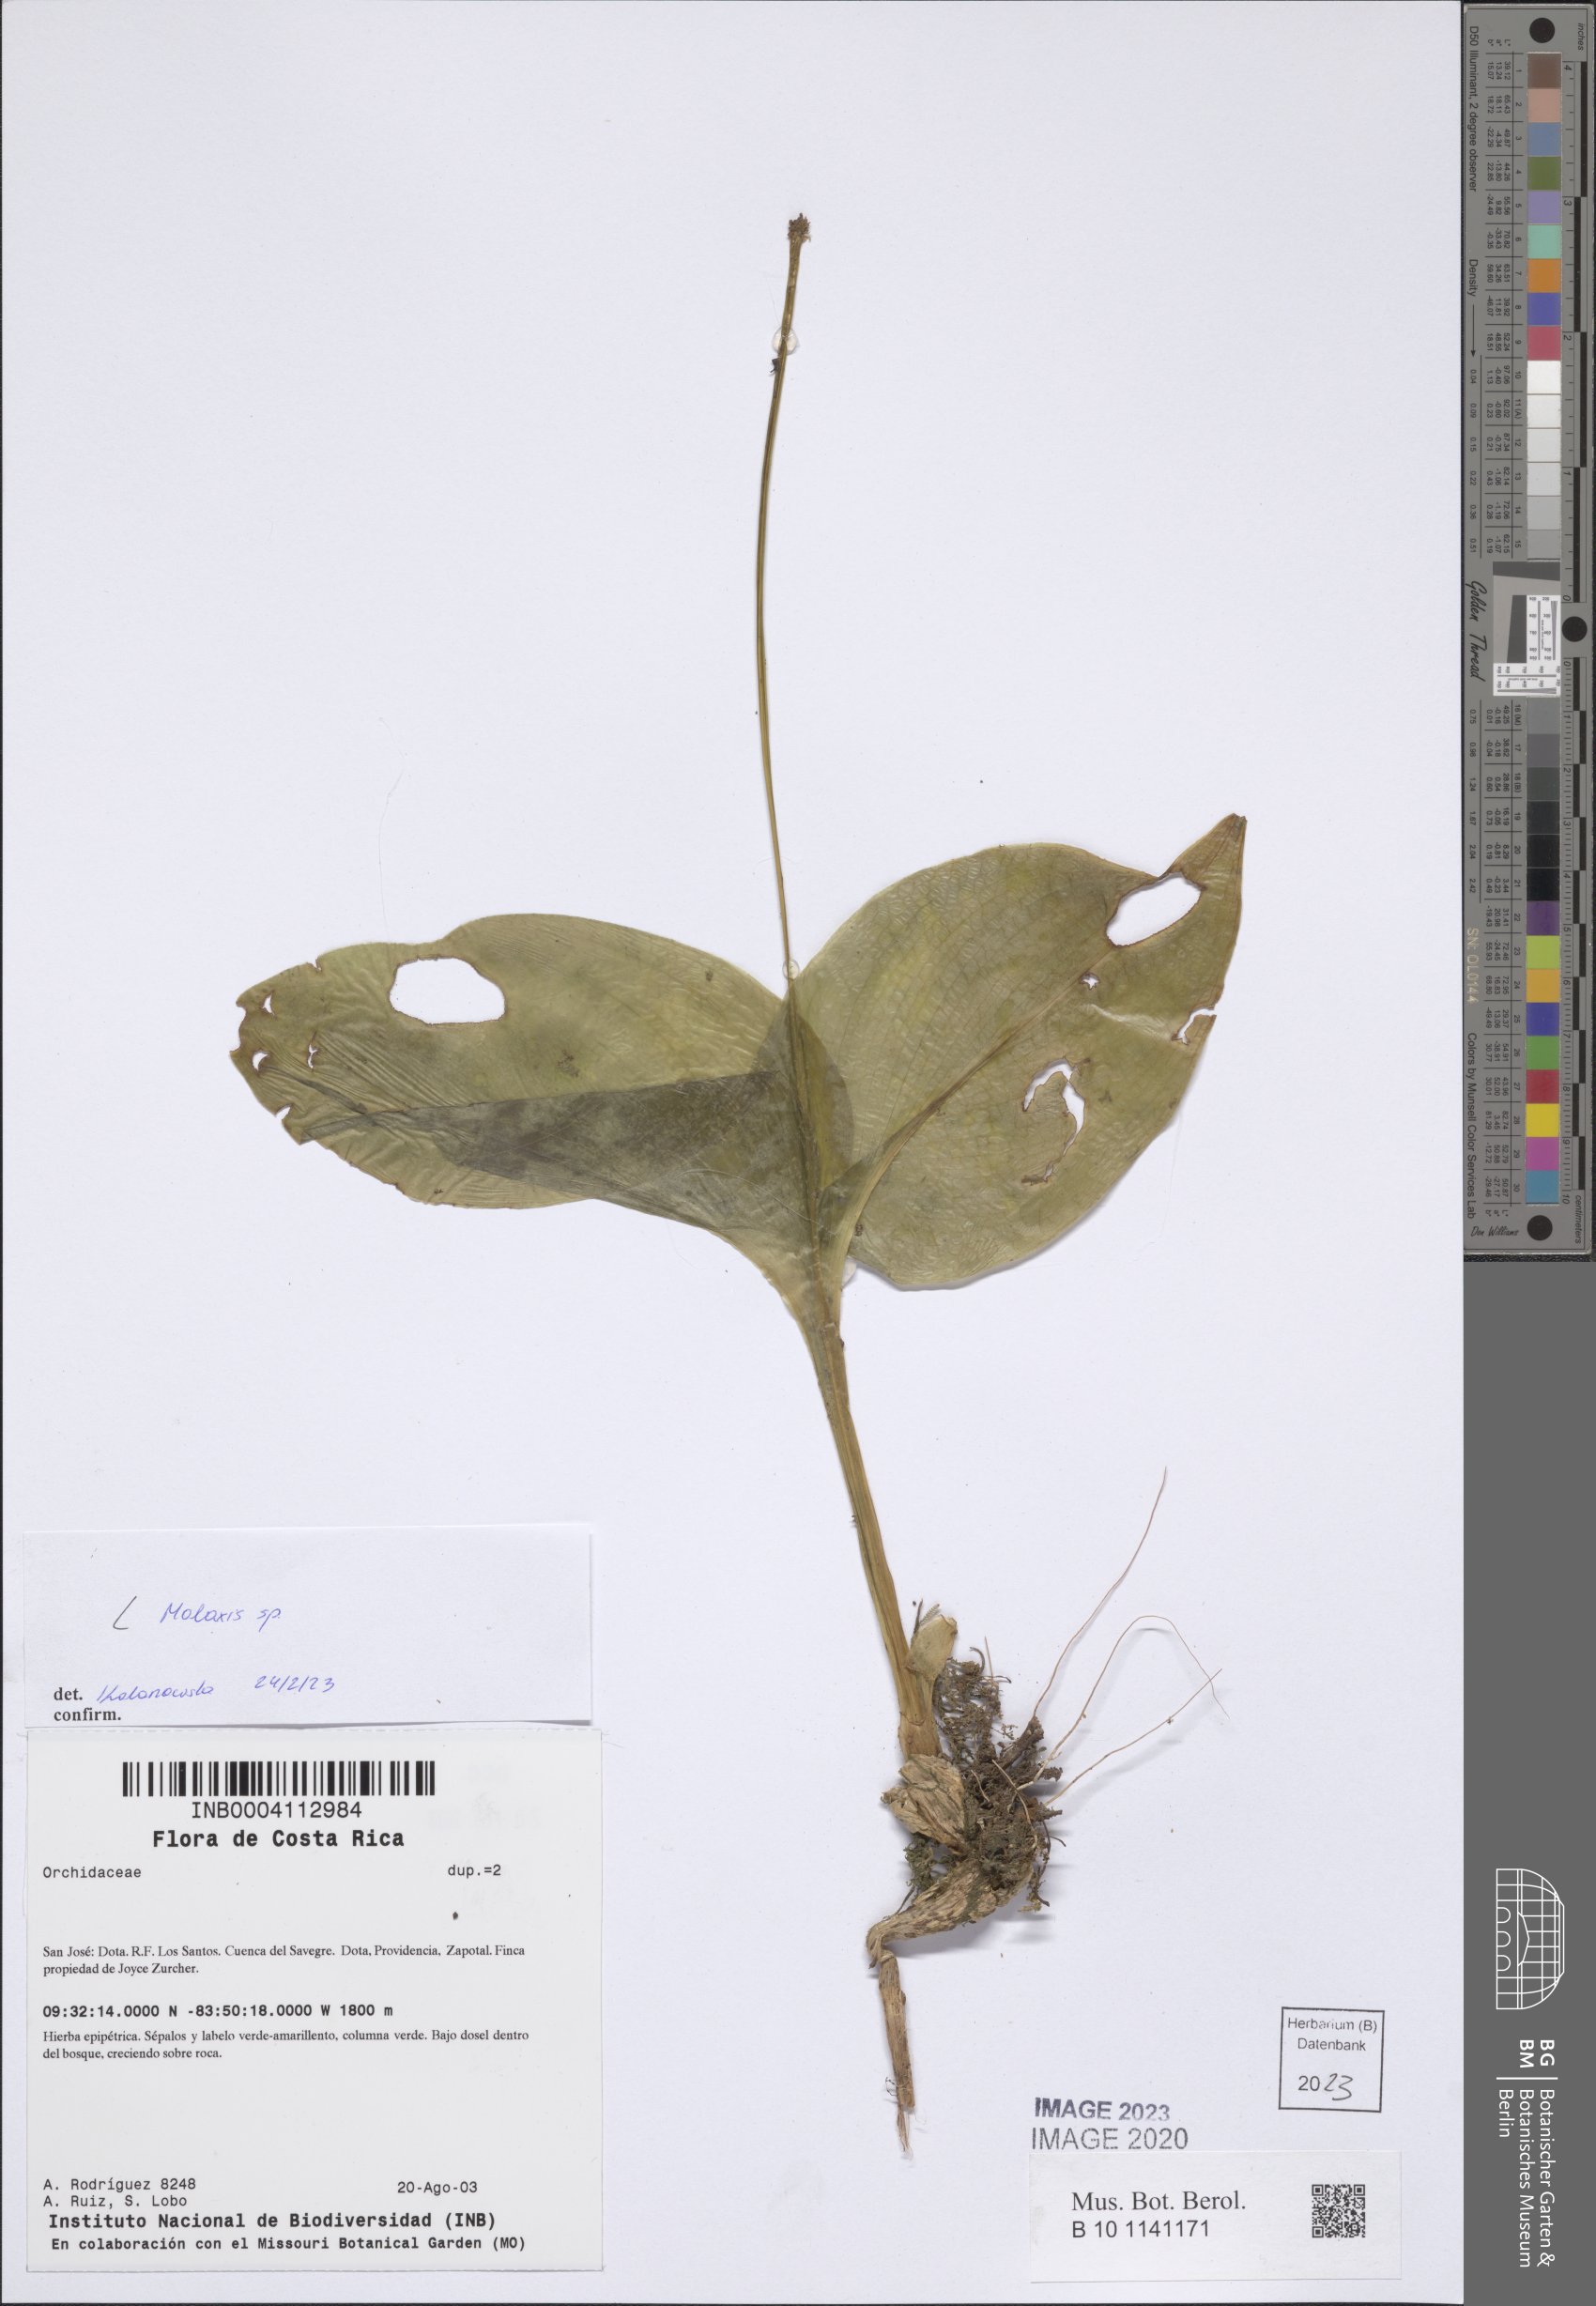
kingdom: Plantae
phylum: Tracheophyta
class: Liliopsida
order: Asparagales
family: Orchidaceae
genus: Malaxis
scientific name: Malaxis
